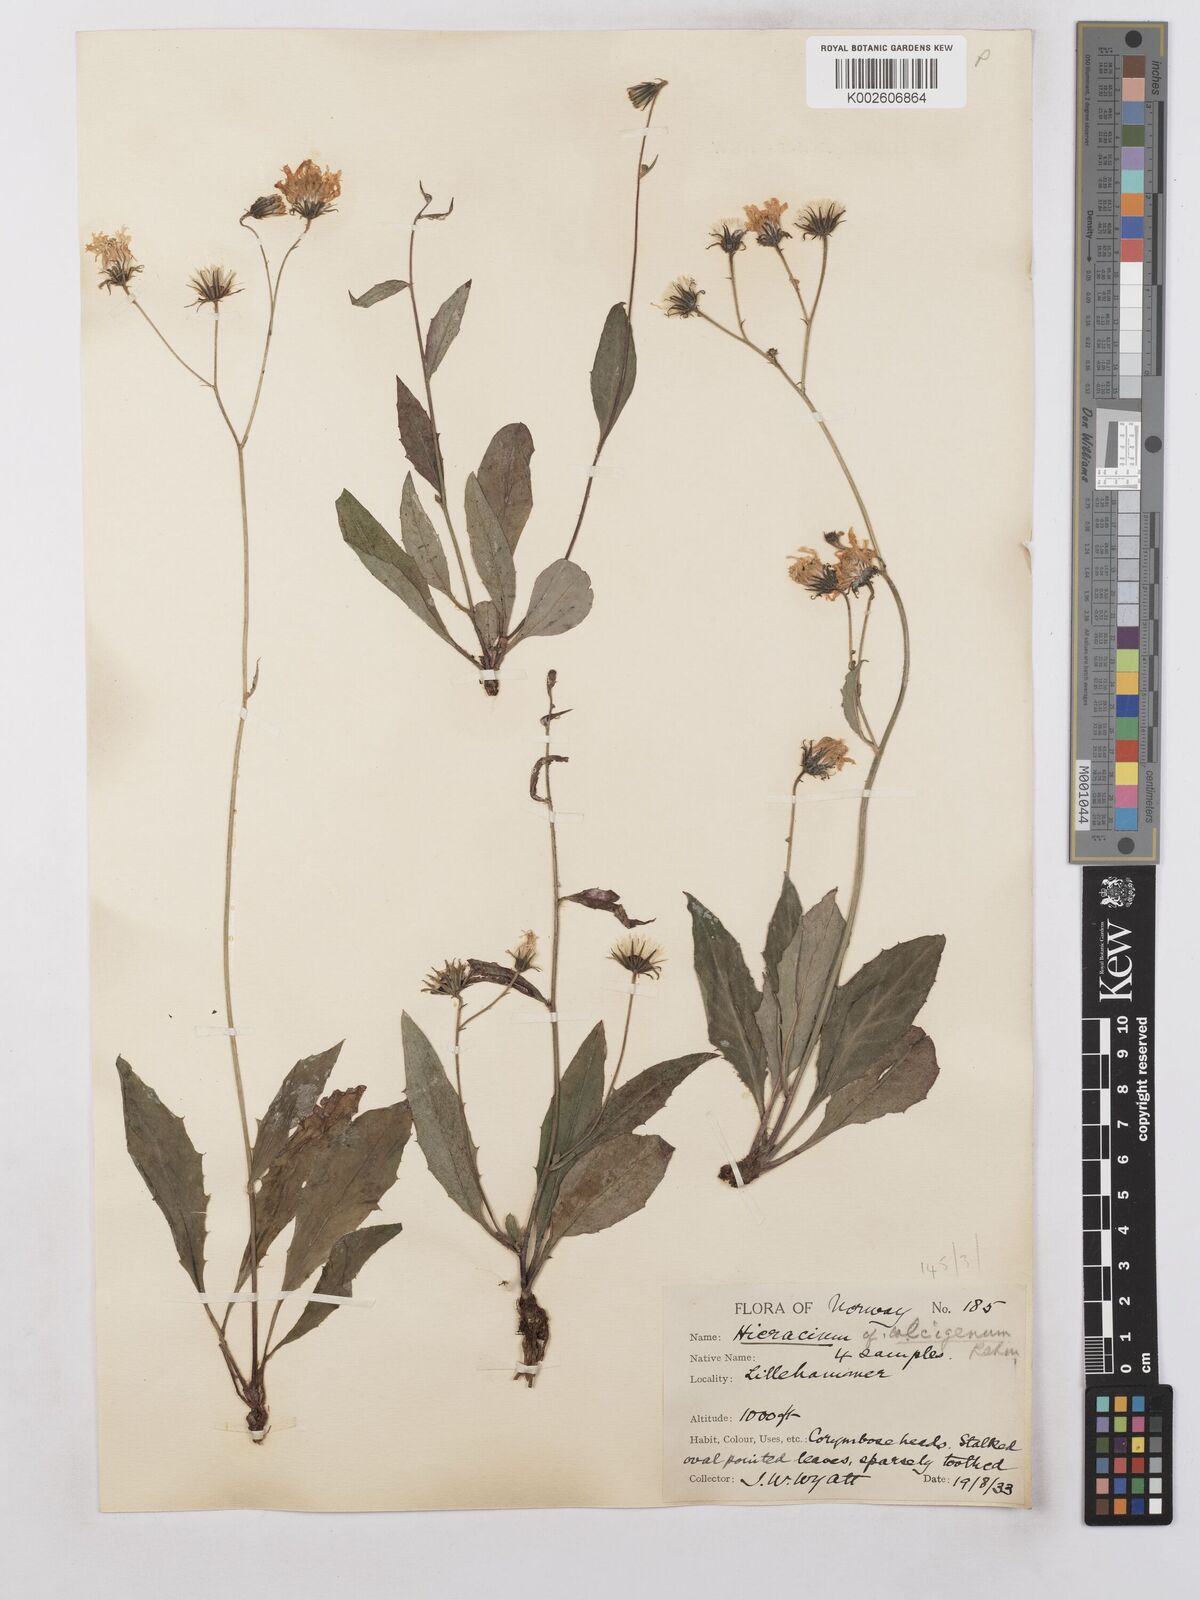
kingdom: Plantae
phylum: Tracheophyta
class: Magnoliopsida
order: Asterales
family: Asteraceae
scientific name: Asteraceae
